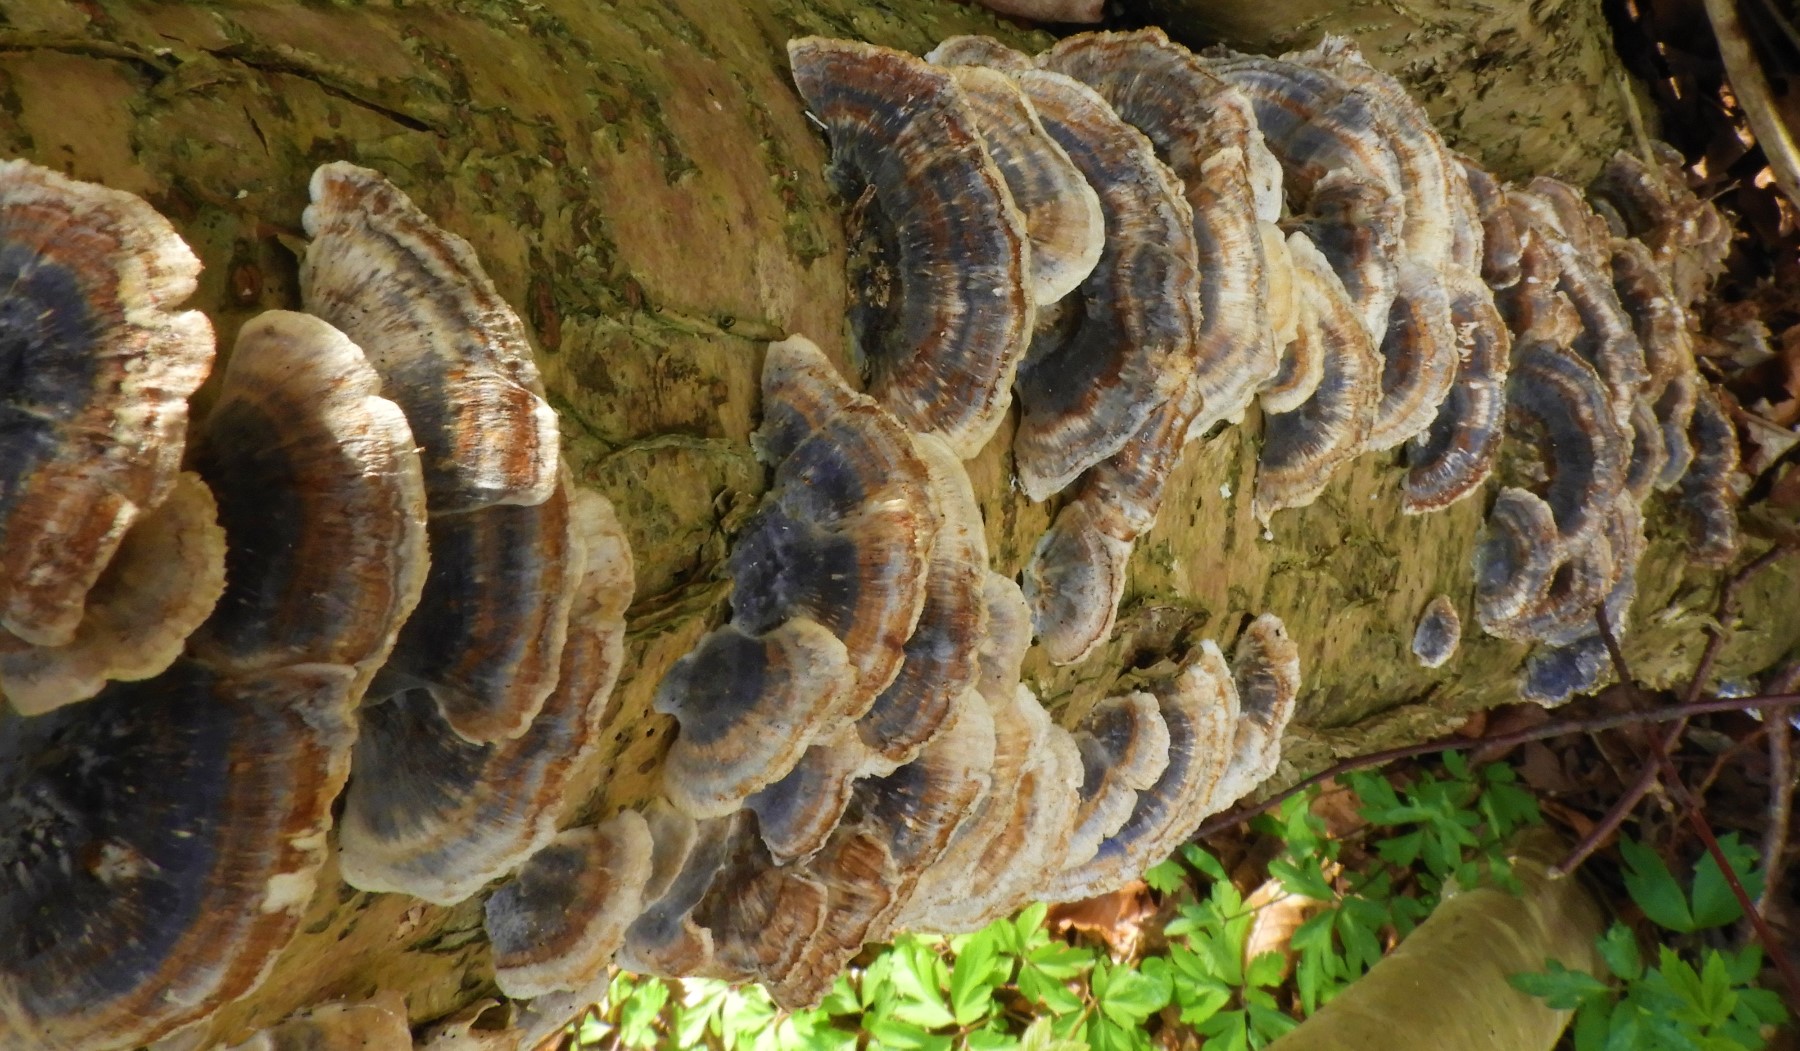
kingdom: Fungi
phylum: Basidiomycota
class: Agaricomycetes
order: Polyporales
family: Polyporaceae
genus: Trametes
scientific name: Trametes versicolor
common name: broget læderporesvamp
